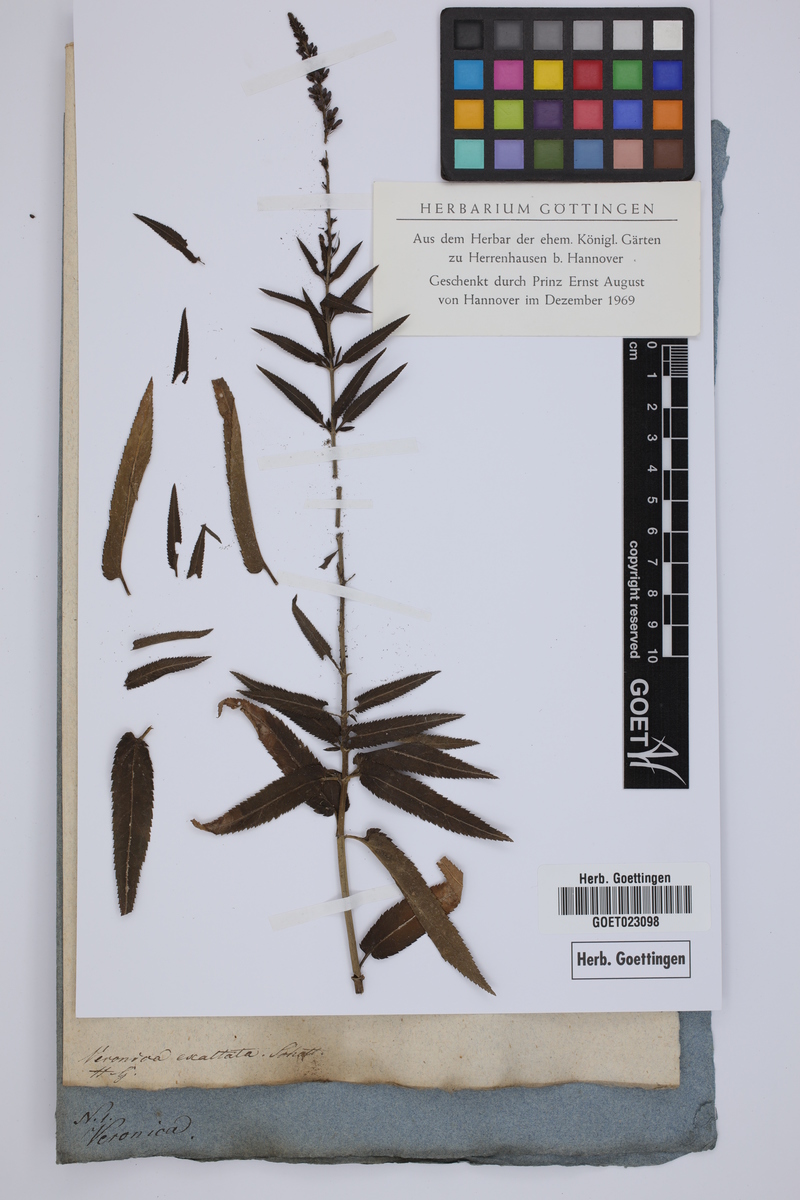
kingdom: Plantae
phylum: Tracheophyta
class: Magnoliopsida
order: Lamiales
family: Plantaginaceae
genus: Veronica
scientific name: Veronica maritima
